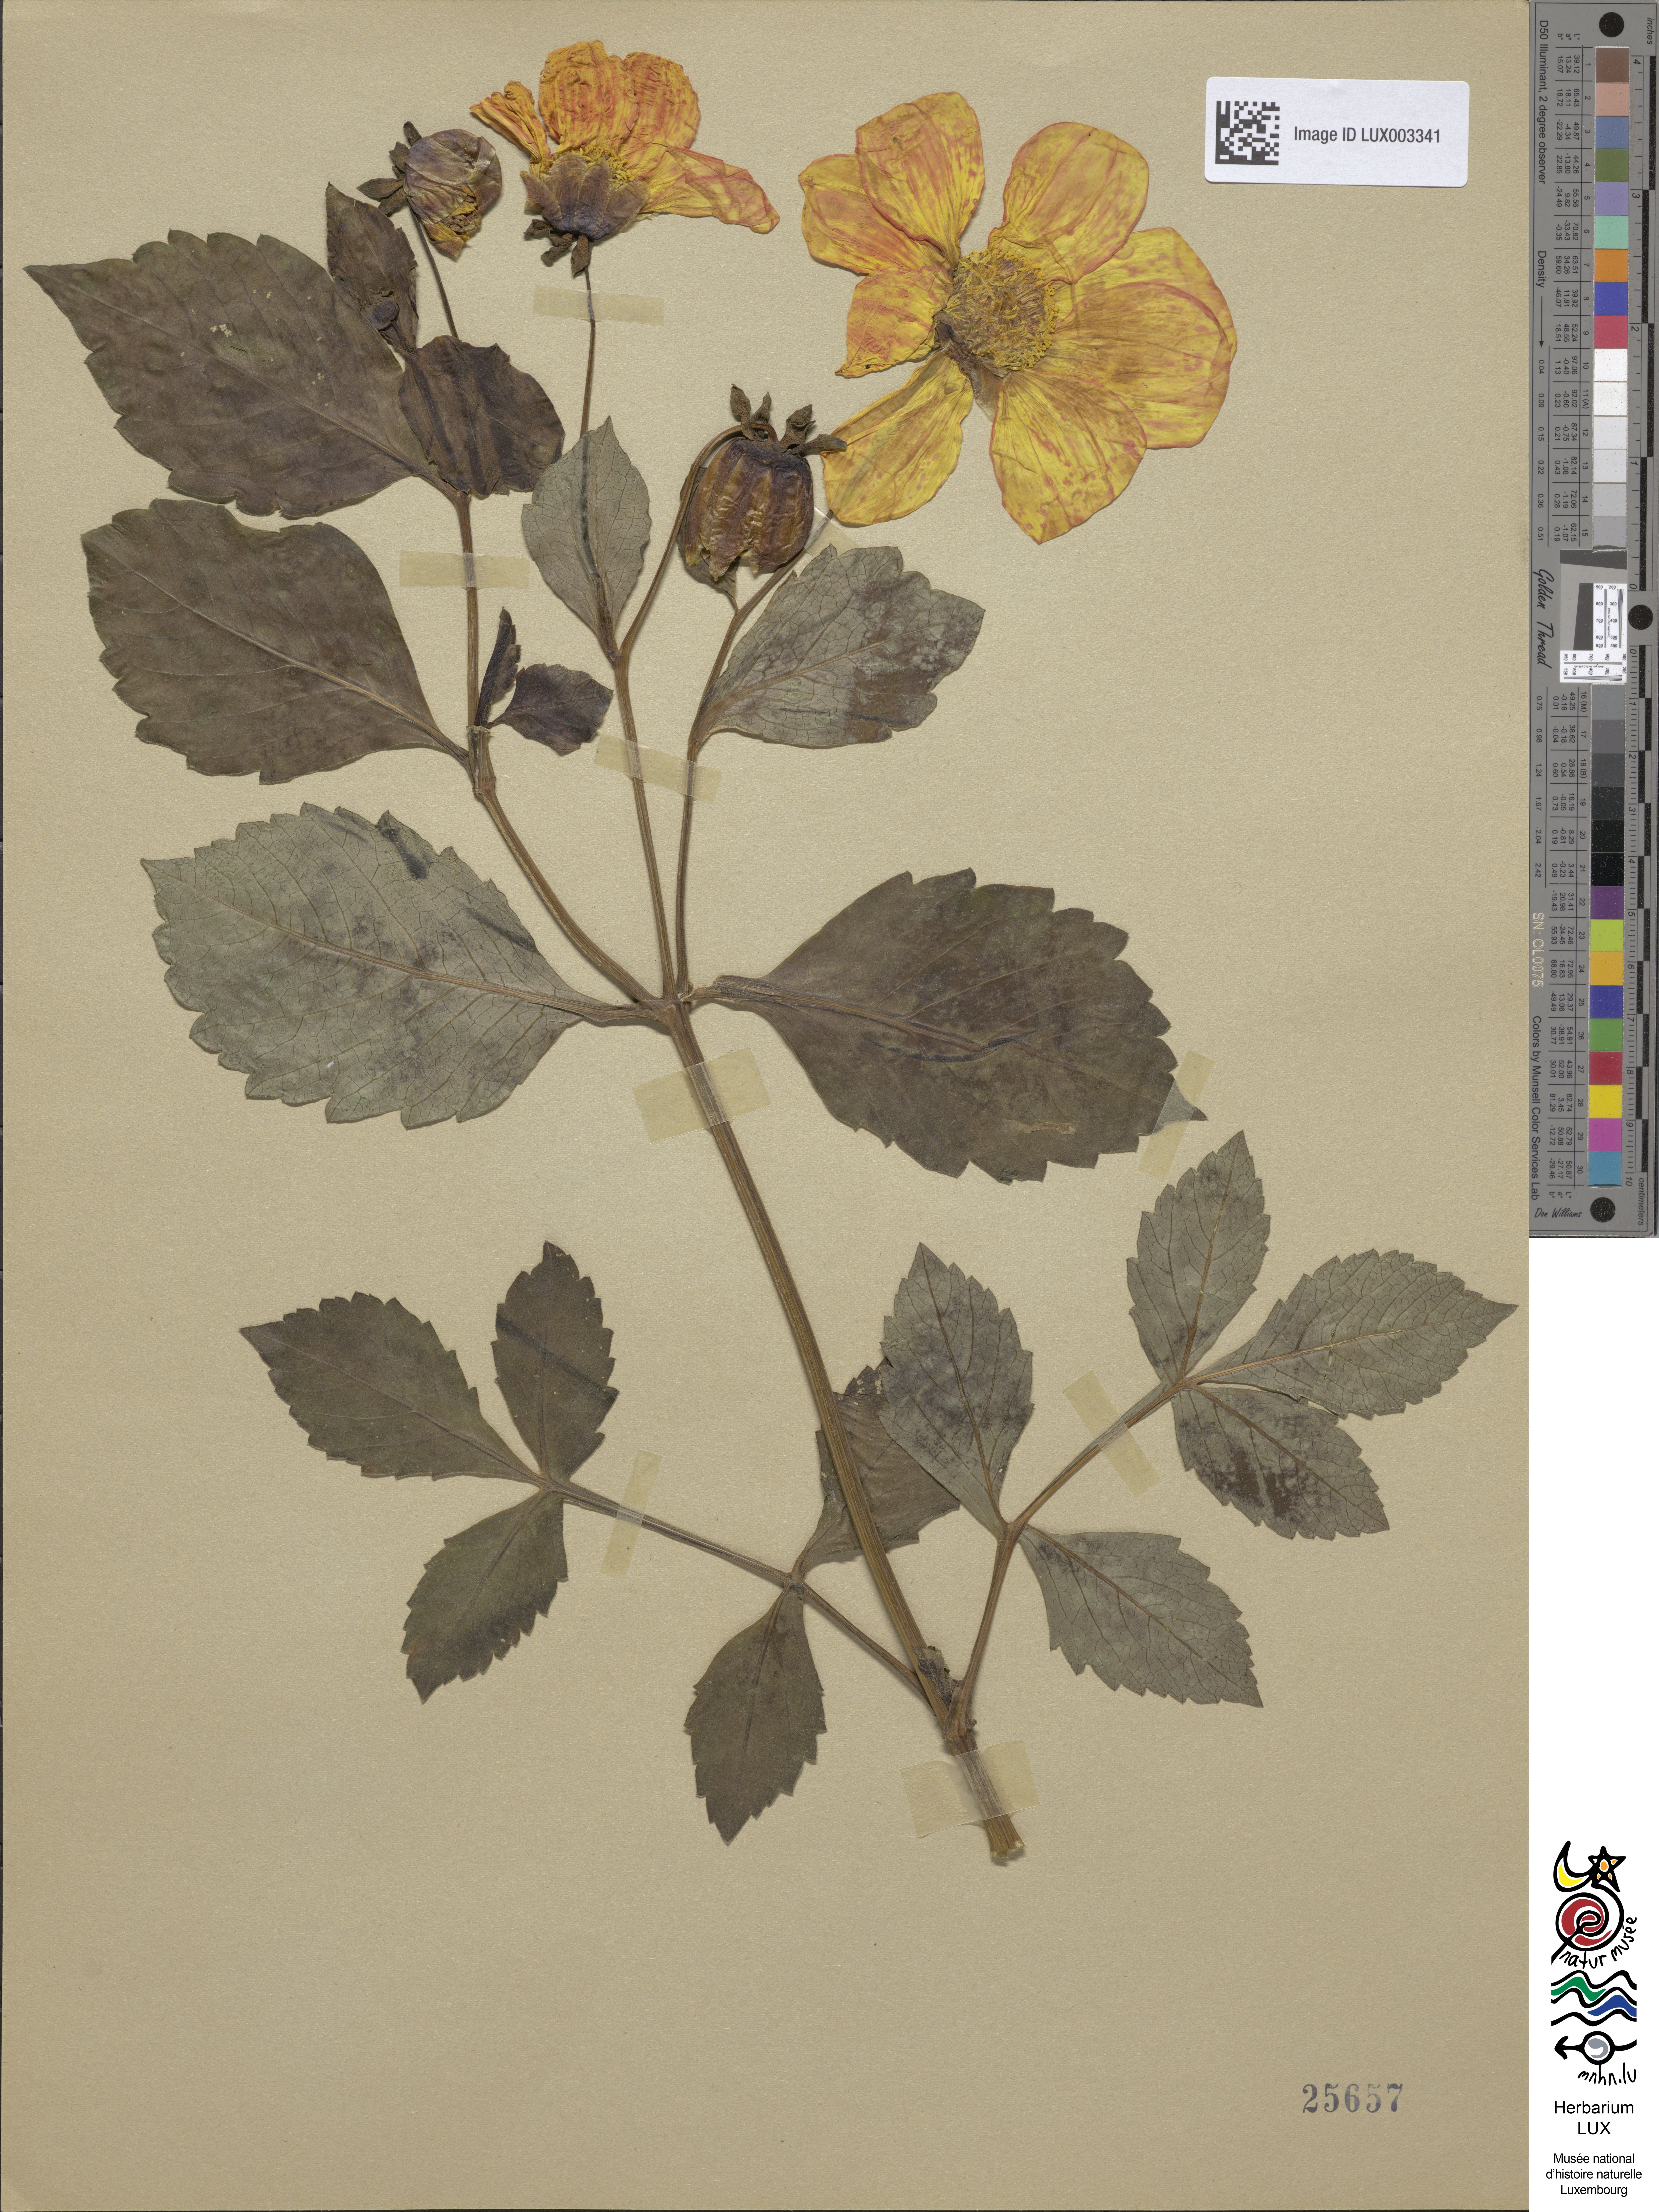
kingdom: Plantae
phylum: Tracheophyta
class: Magnoliopsida
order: Asterales
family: Asteraceae
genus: Dahlia
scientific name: Dahlia pinnata
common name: Dahlia
